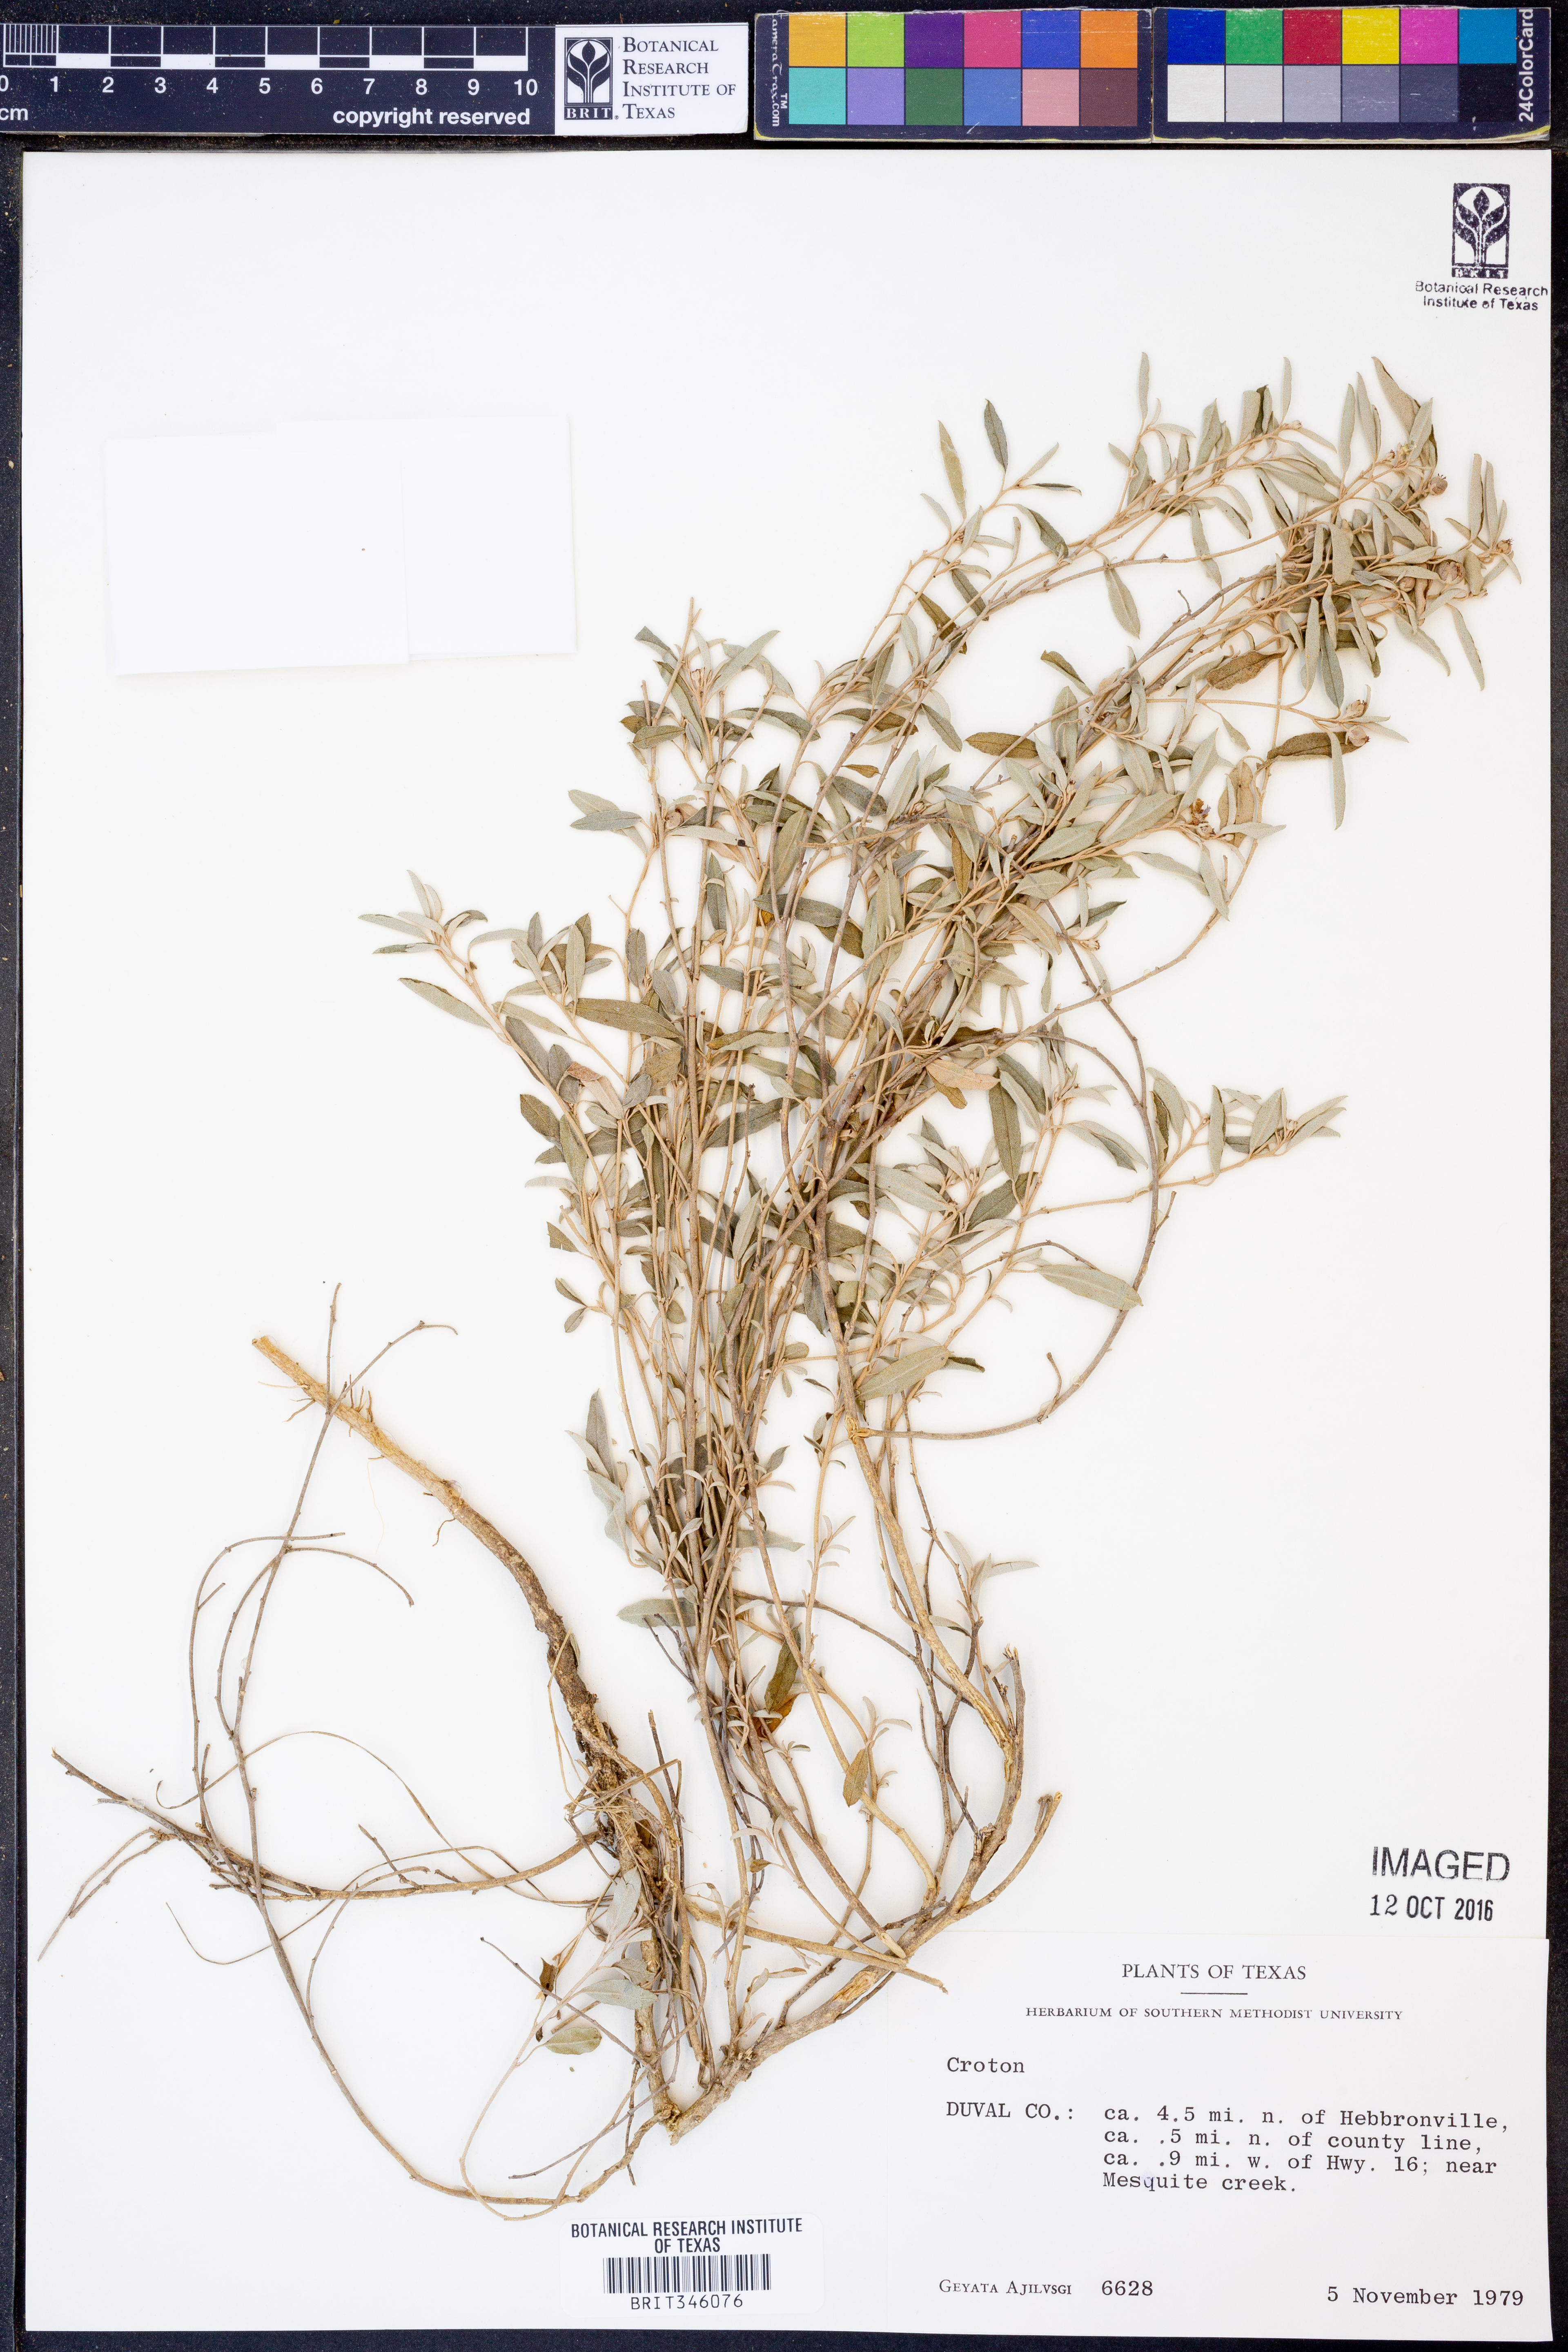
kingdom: Plantae
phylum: Tracheophyta
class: Magnoliopsida
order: Malpighiales
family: Euphorbiaceae
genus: Croton
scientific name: Croton
